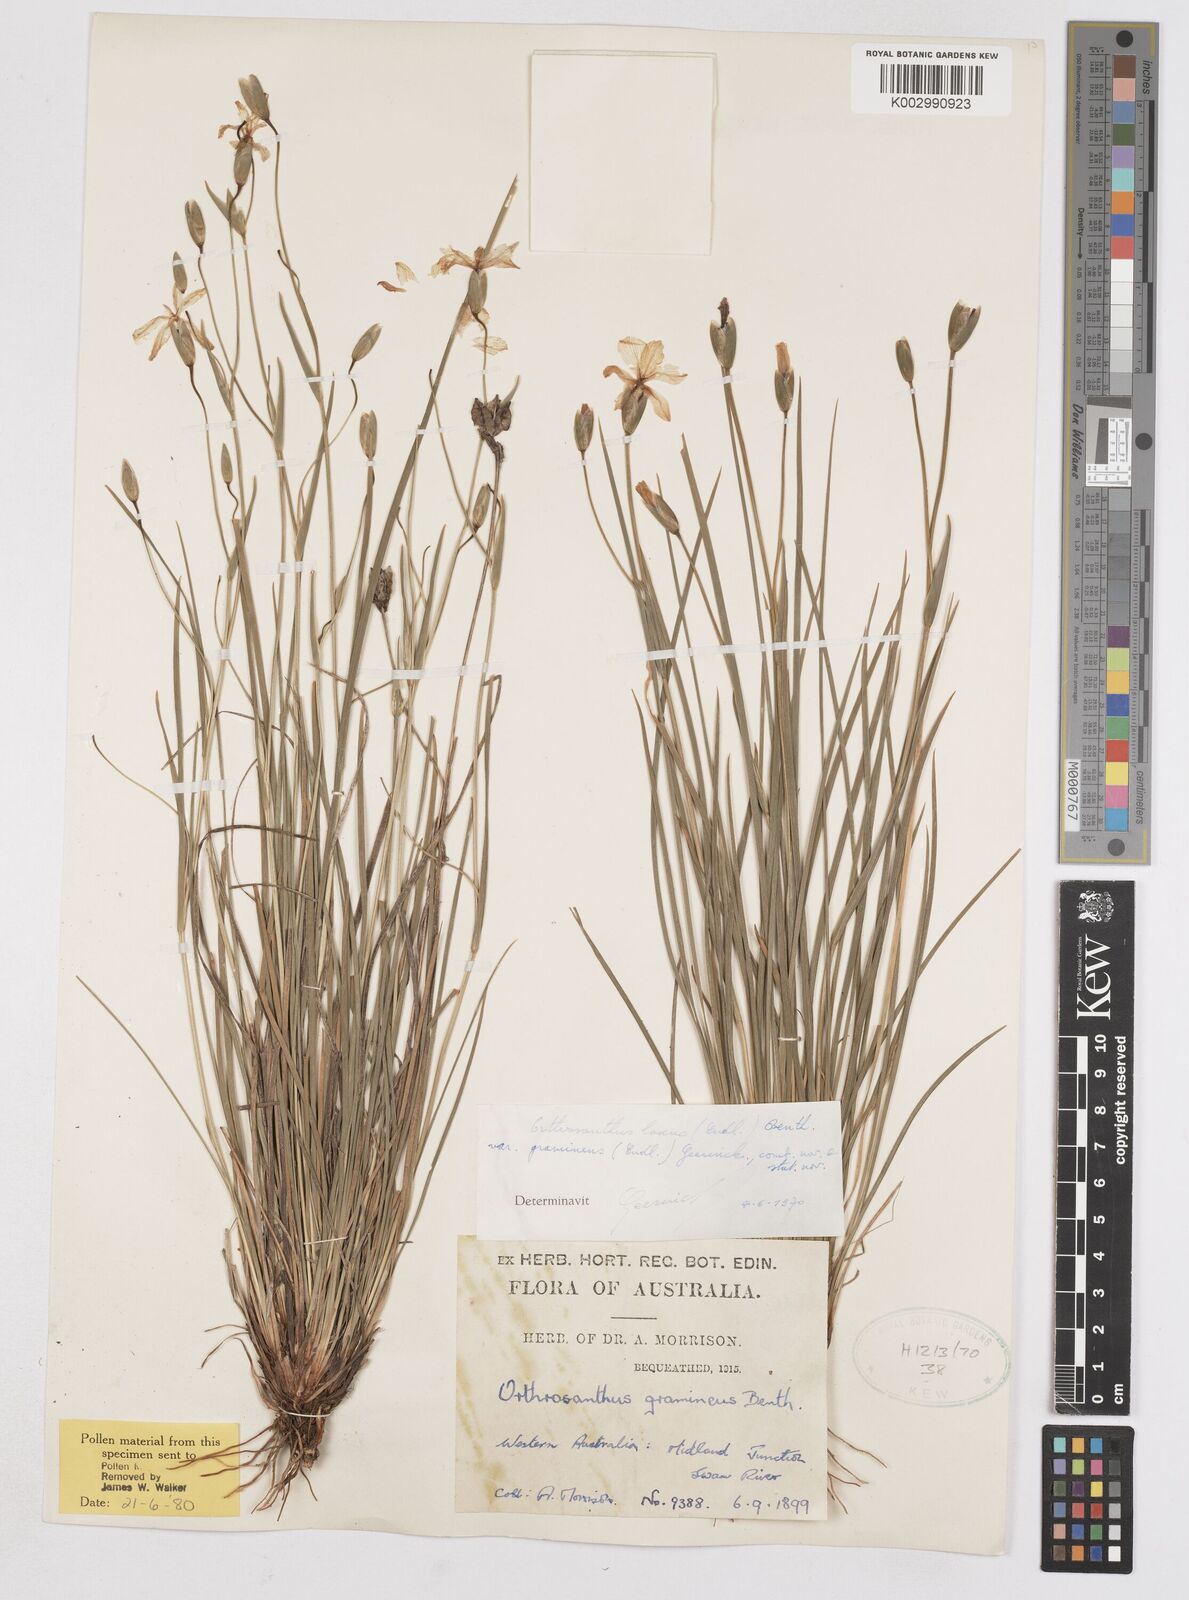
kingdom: Plantae
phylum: Tracheophyta
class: Liliopsida
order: Asparagales
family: Iridaceae
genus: Orthrosanthus
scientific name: Orthrosanthus laxus
